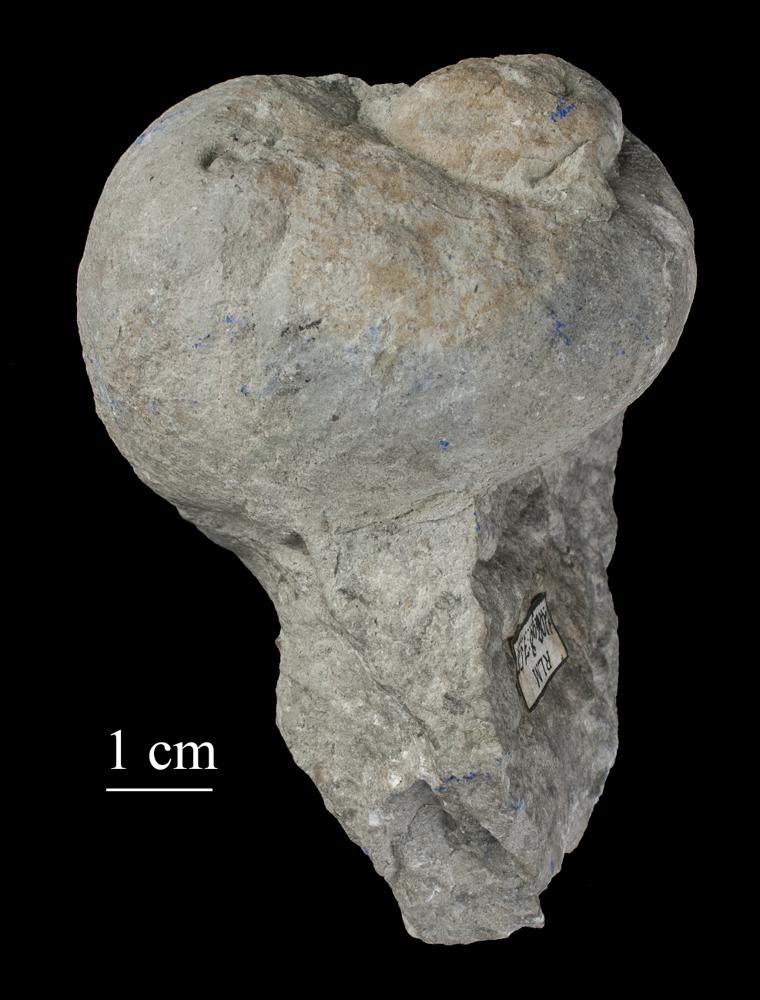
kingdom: Animalia
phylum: Mollusca
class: Gastropoda
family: Holopeidae
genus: Holopea
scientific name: Holopea ampullacea
